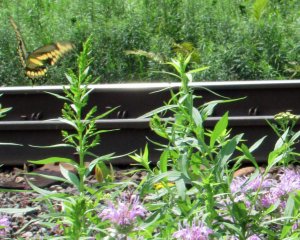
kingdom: Animalia
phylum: Arthropoda
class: Insecta
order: Lepidoptera
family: Papilionidae
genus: Papilio
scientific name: Papilio cresphontes
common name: Eastern Giant Swallowtail
